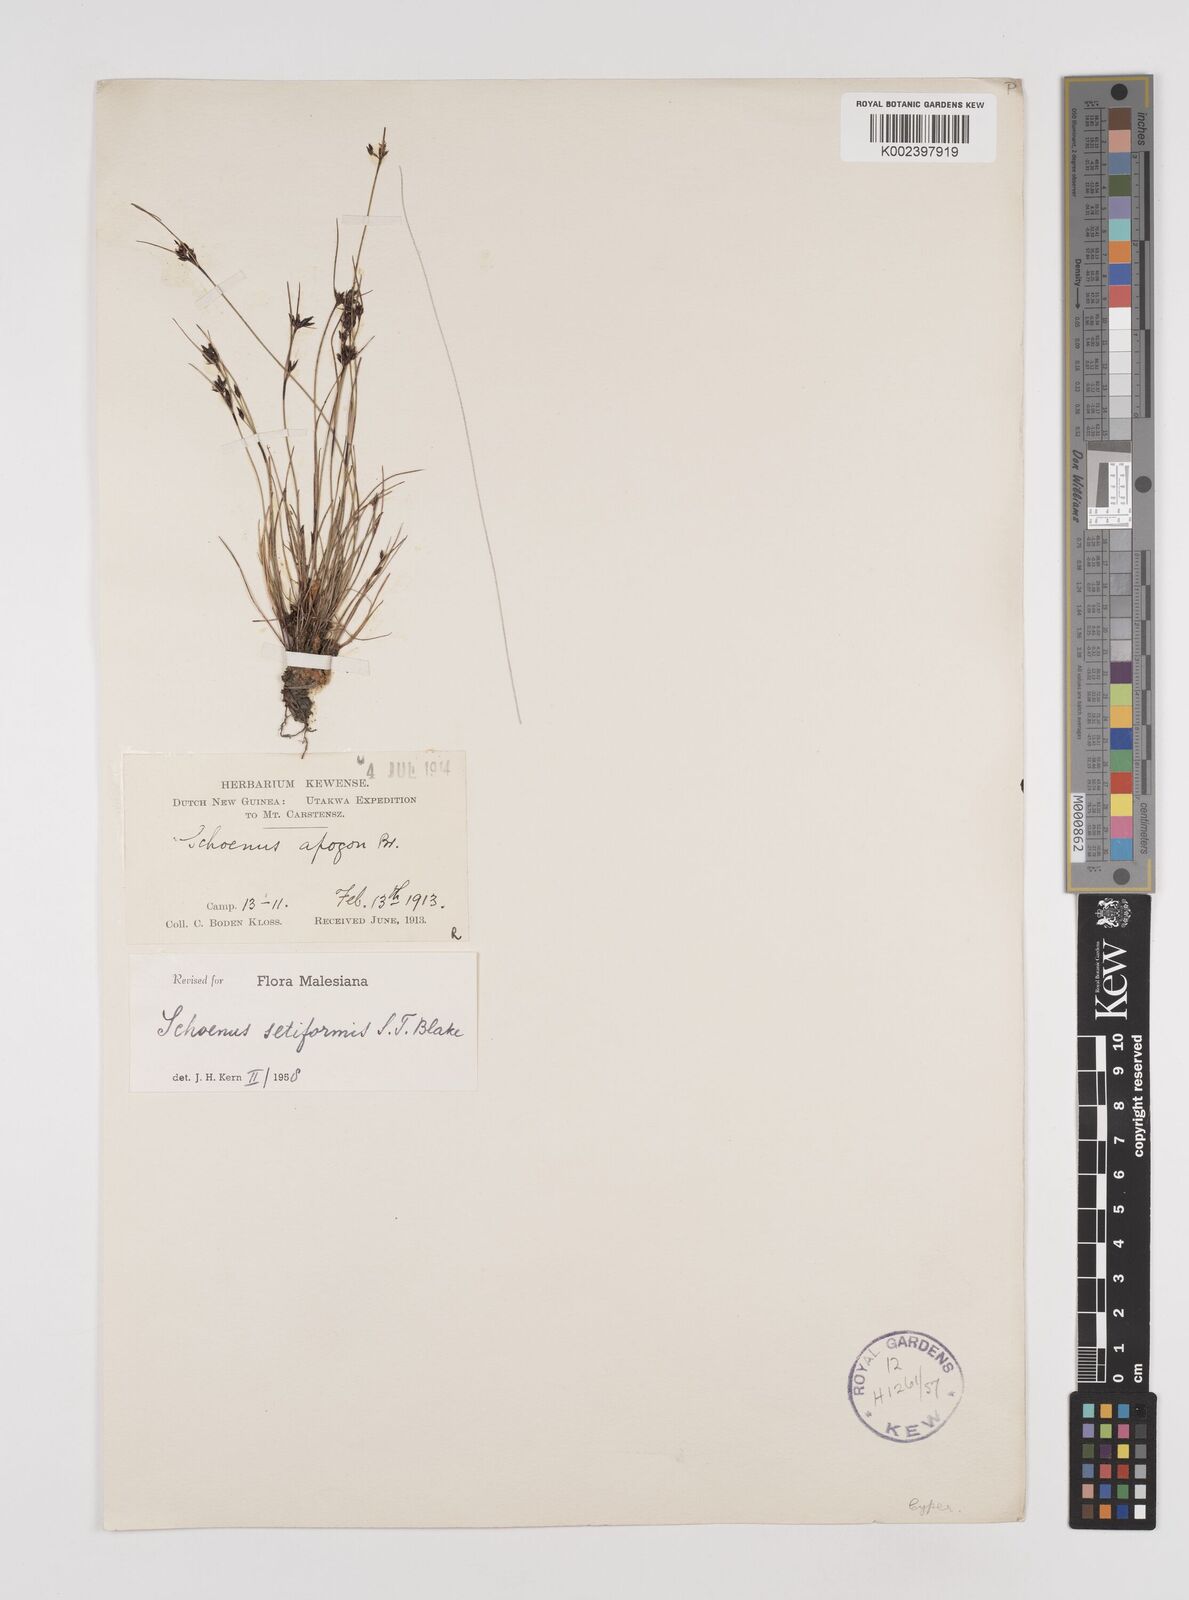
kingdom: Plantae
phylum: Tracheophyta
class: Liliopsida
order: Poales
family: Cyperaceae
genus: Schoenus
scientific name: Schoenus setiformis
